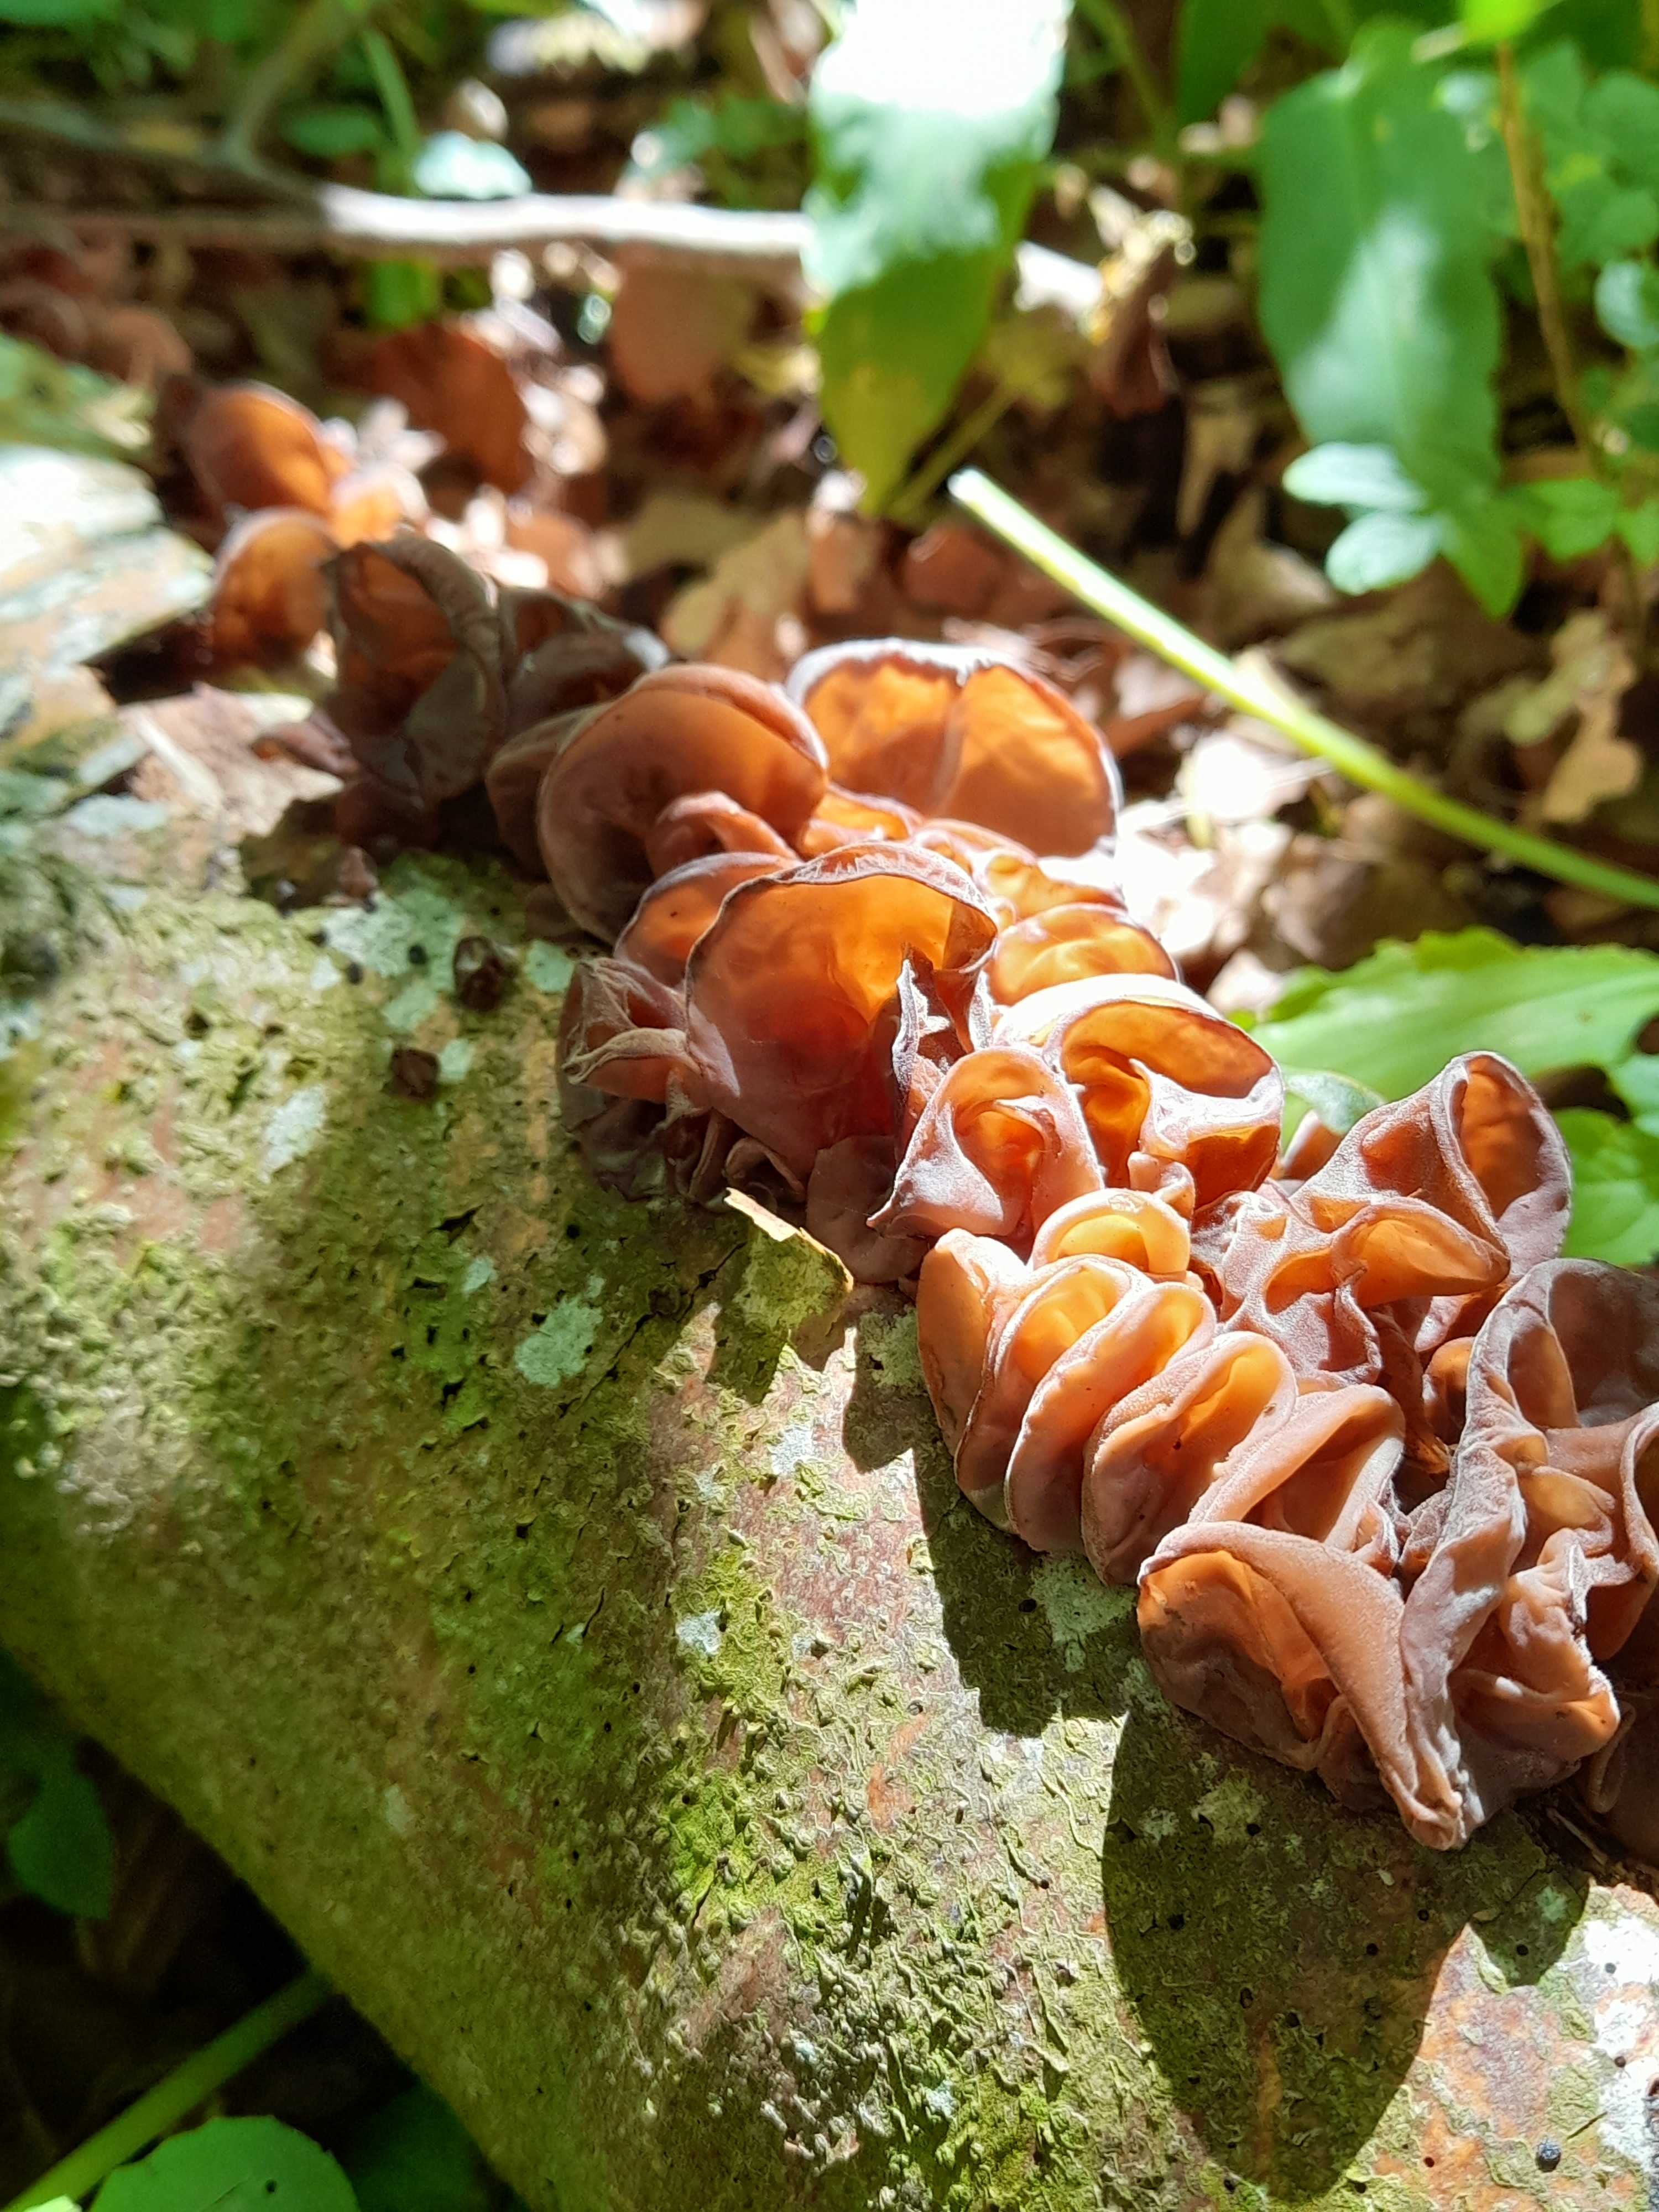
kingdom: Fungi
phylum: Basidiomycota
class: Agaricomycetes
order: Auriculariales
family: Auriculariaceae
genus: Auricularia
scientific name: Auricularia auricula-judae
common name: almindelig judasøre
